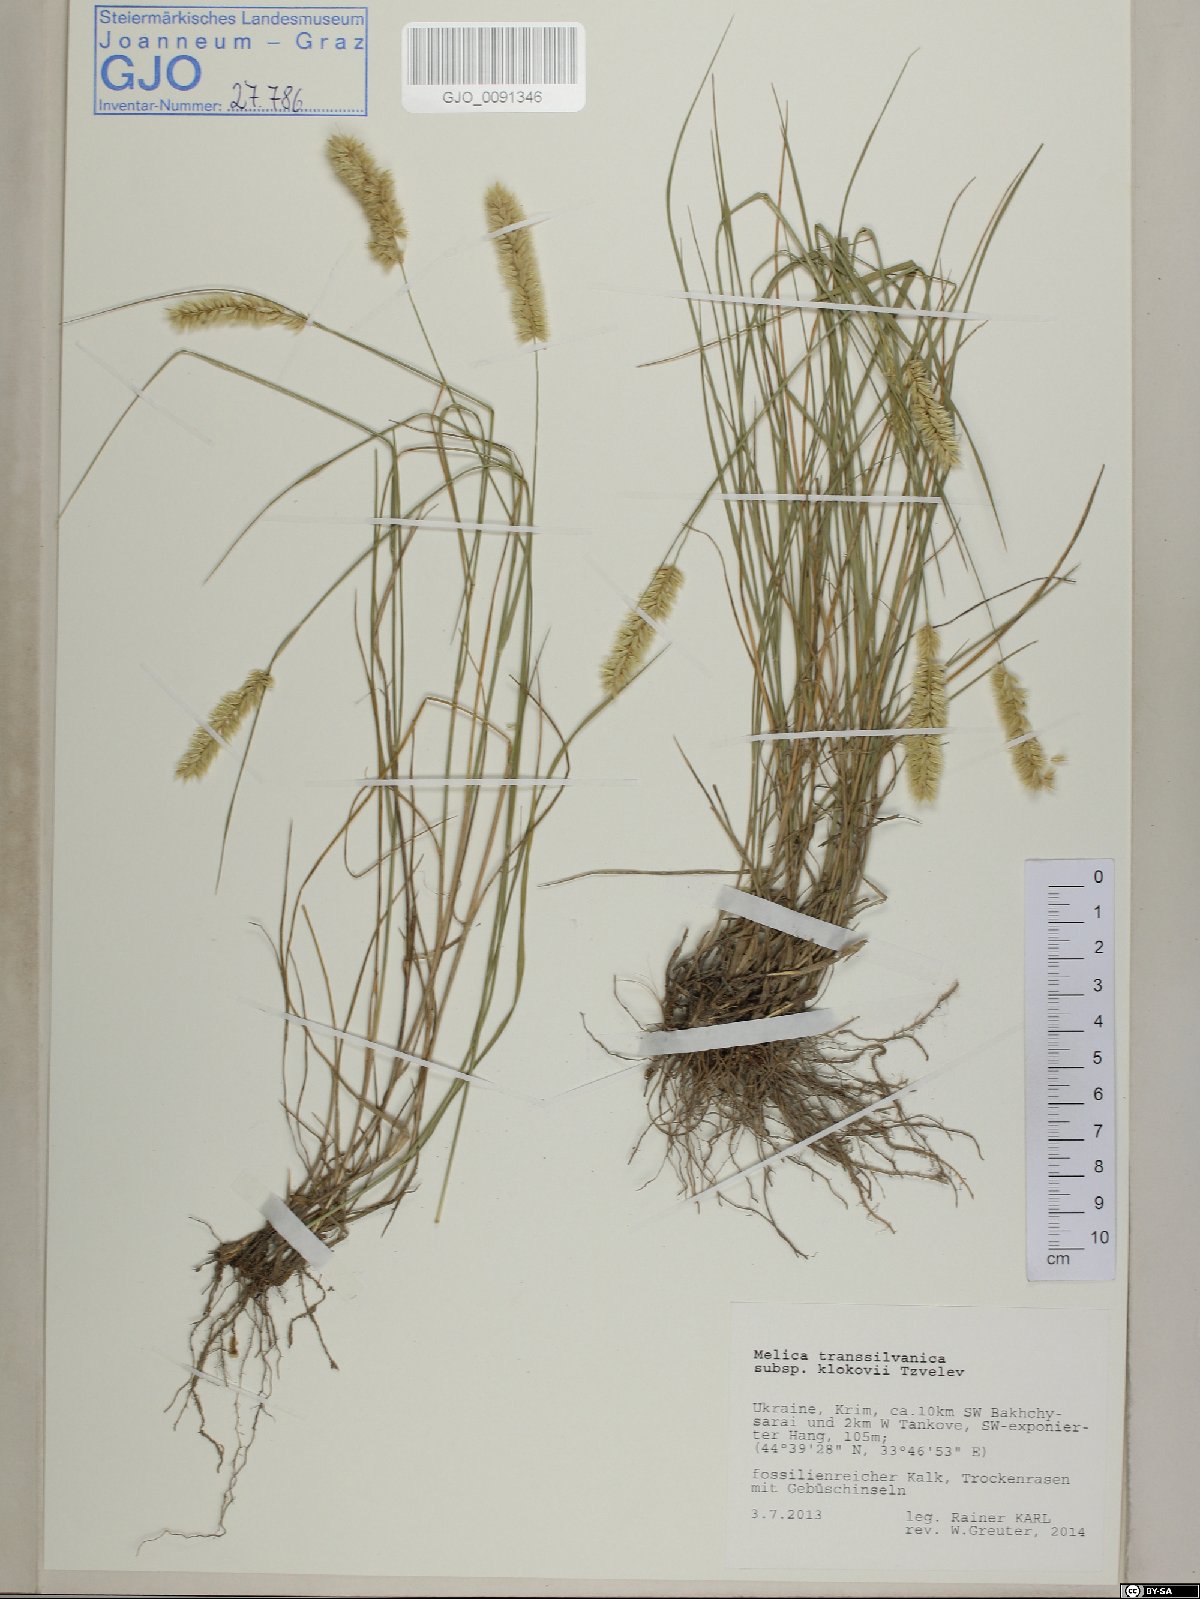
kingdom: Plantae
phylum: Tracheophyta
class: Liliopsida
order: Poales
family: Poaceae
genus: Melica
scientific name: Melica transsilvanica
